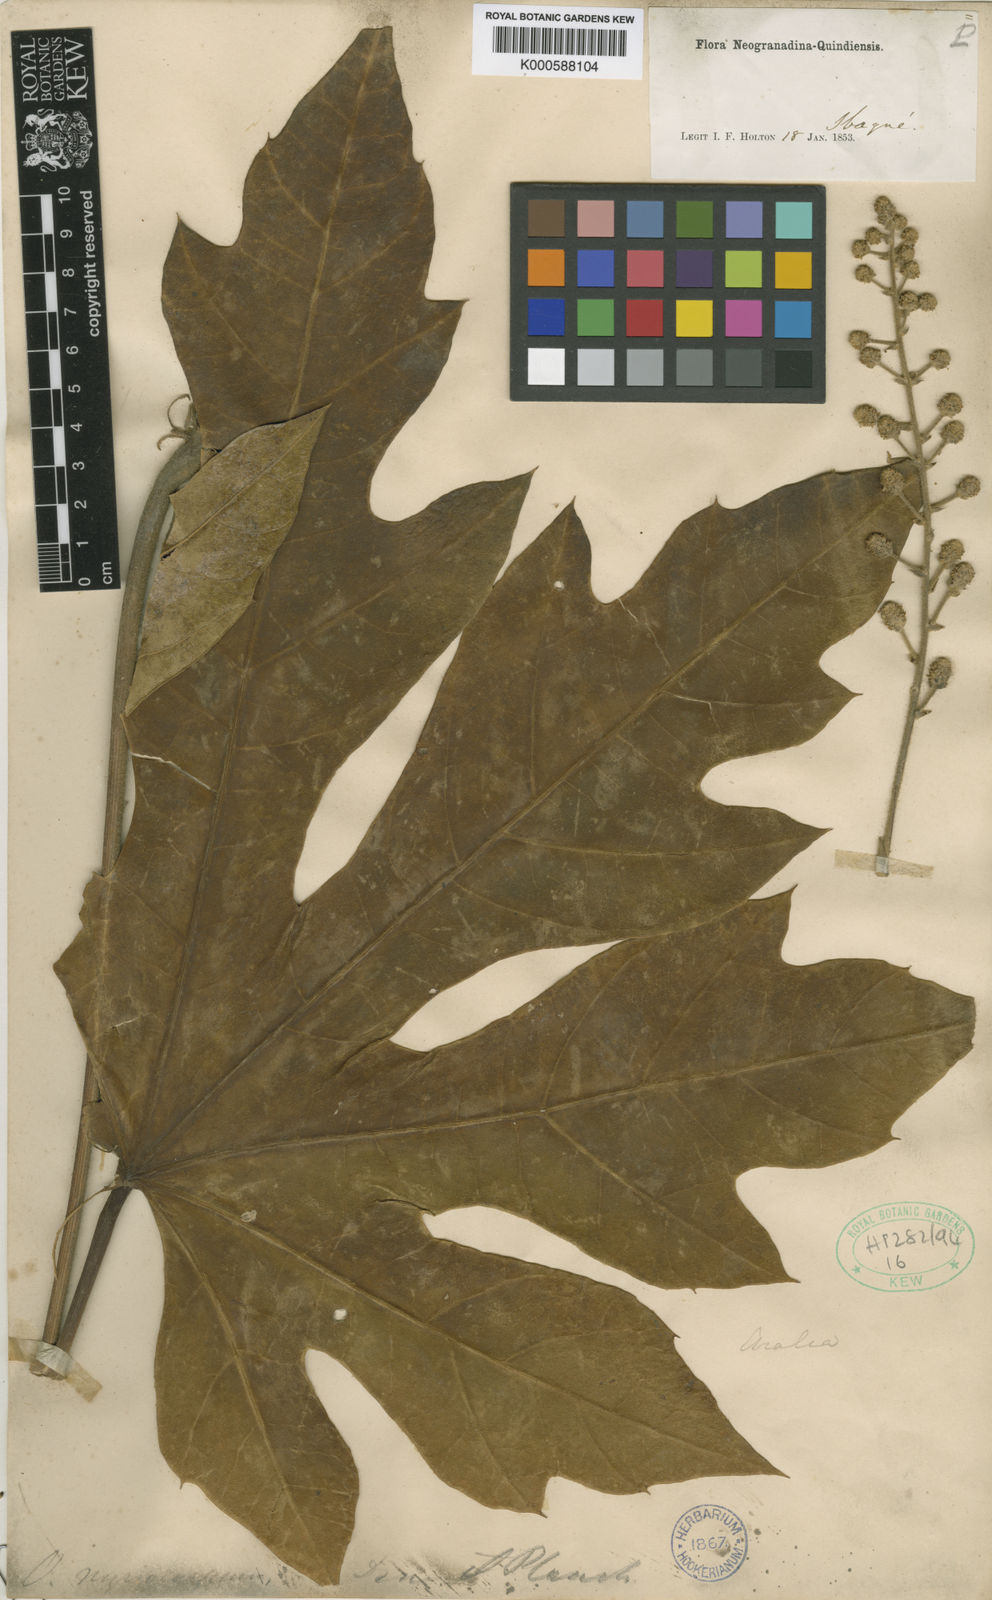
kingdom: Plantae
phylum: Tracheophyta
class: Magnoliopsida
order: Apiales
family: Araliaceae
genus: Oreopanax
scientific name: Oreopanax
